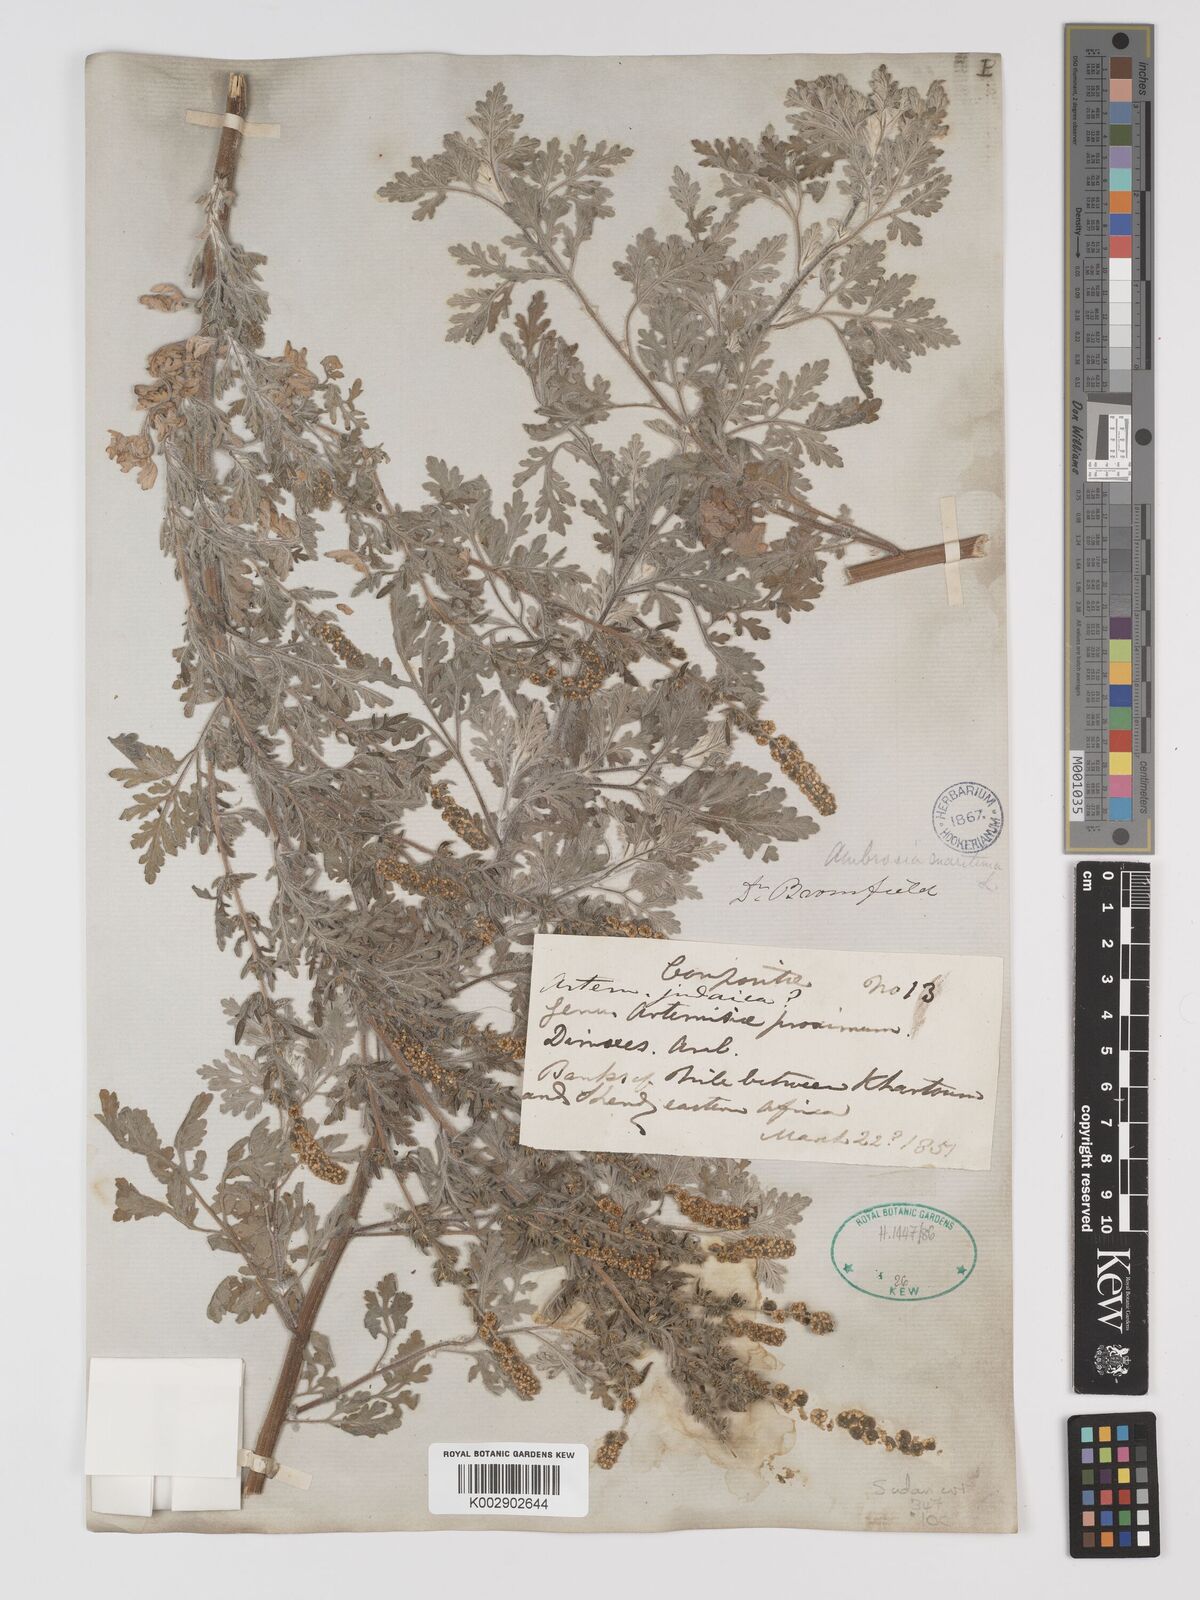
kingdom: Plantae
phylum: Tracheophyta
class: Magnoliopsida
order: Asterales
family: Asteraceae
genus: Ambrosia
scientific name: Ambrosia maritima
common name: Sea ambrosia
